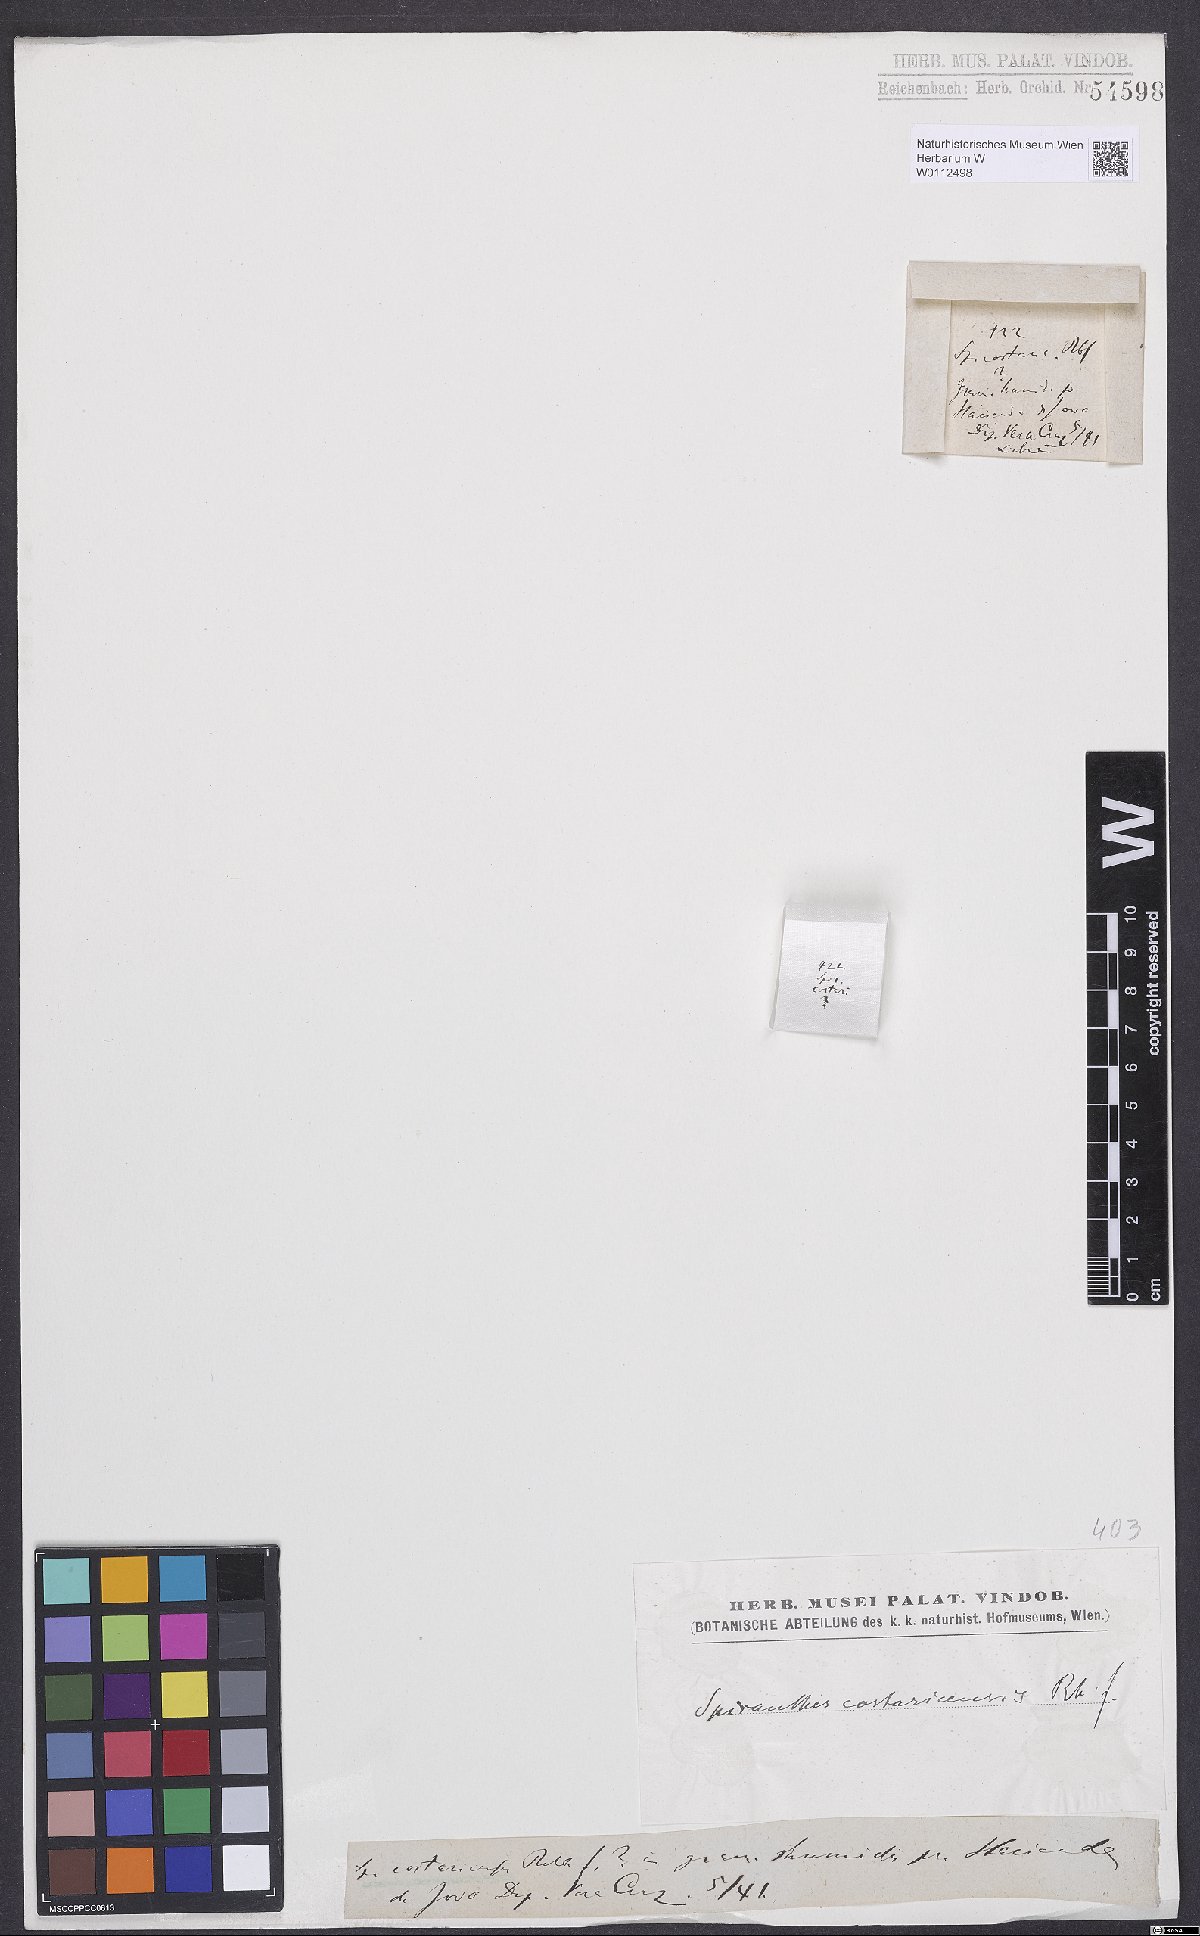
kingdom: Plantae
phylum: Tracheophyta
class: Liliopsida
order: Asparagales
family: Orchidaceae
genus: Beloglottis
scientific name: Beloglottis costaricensis
